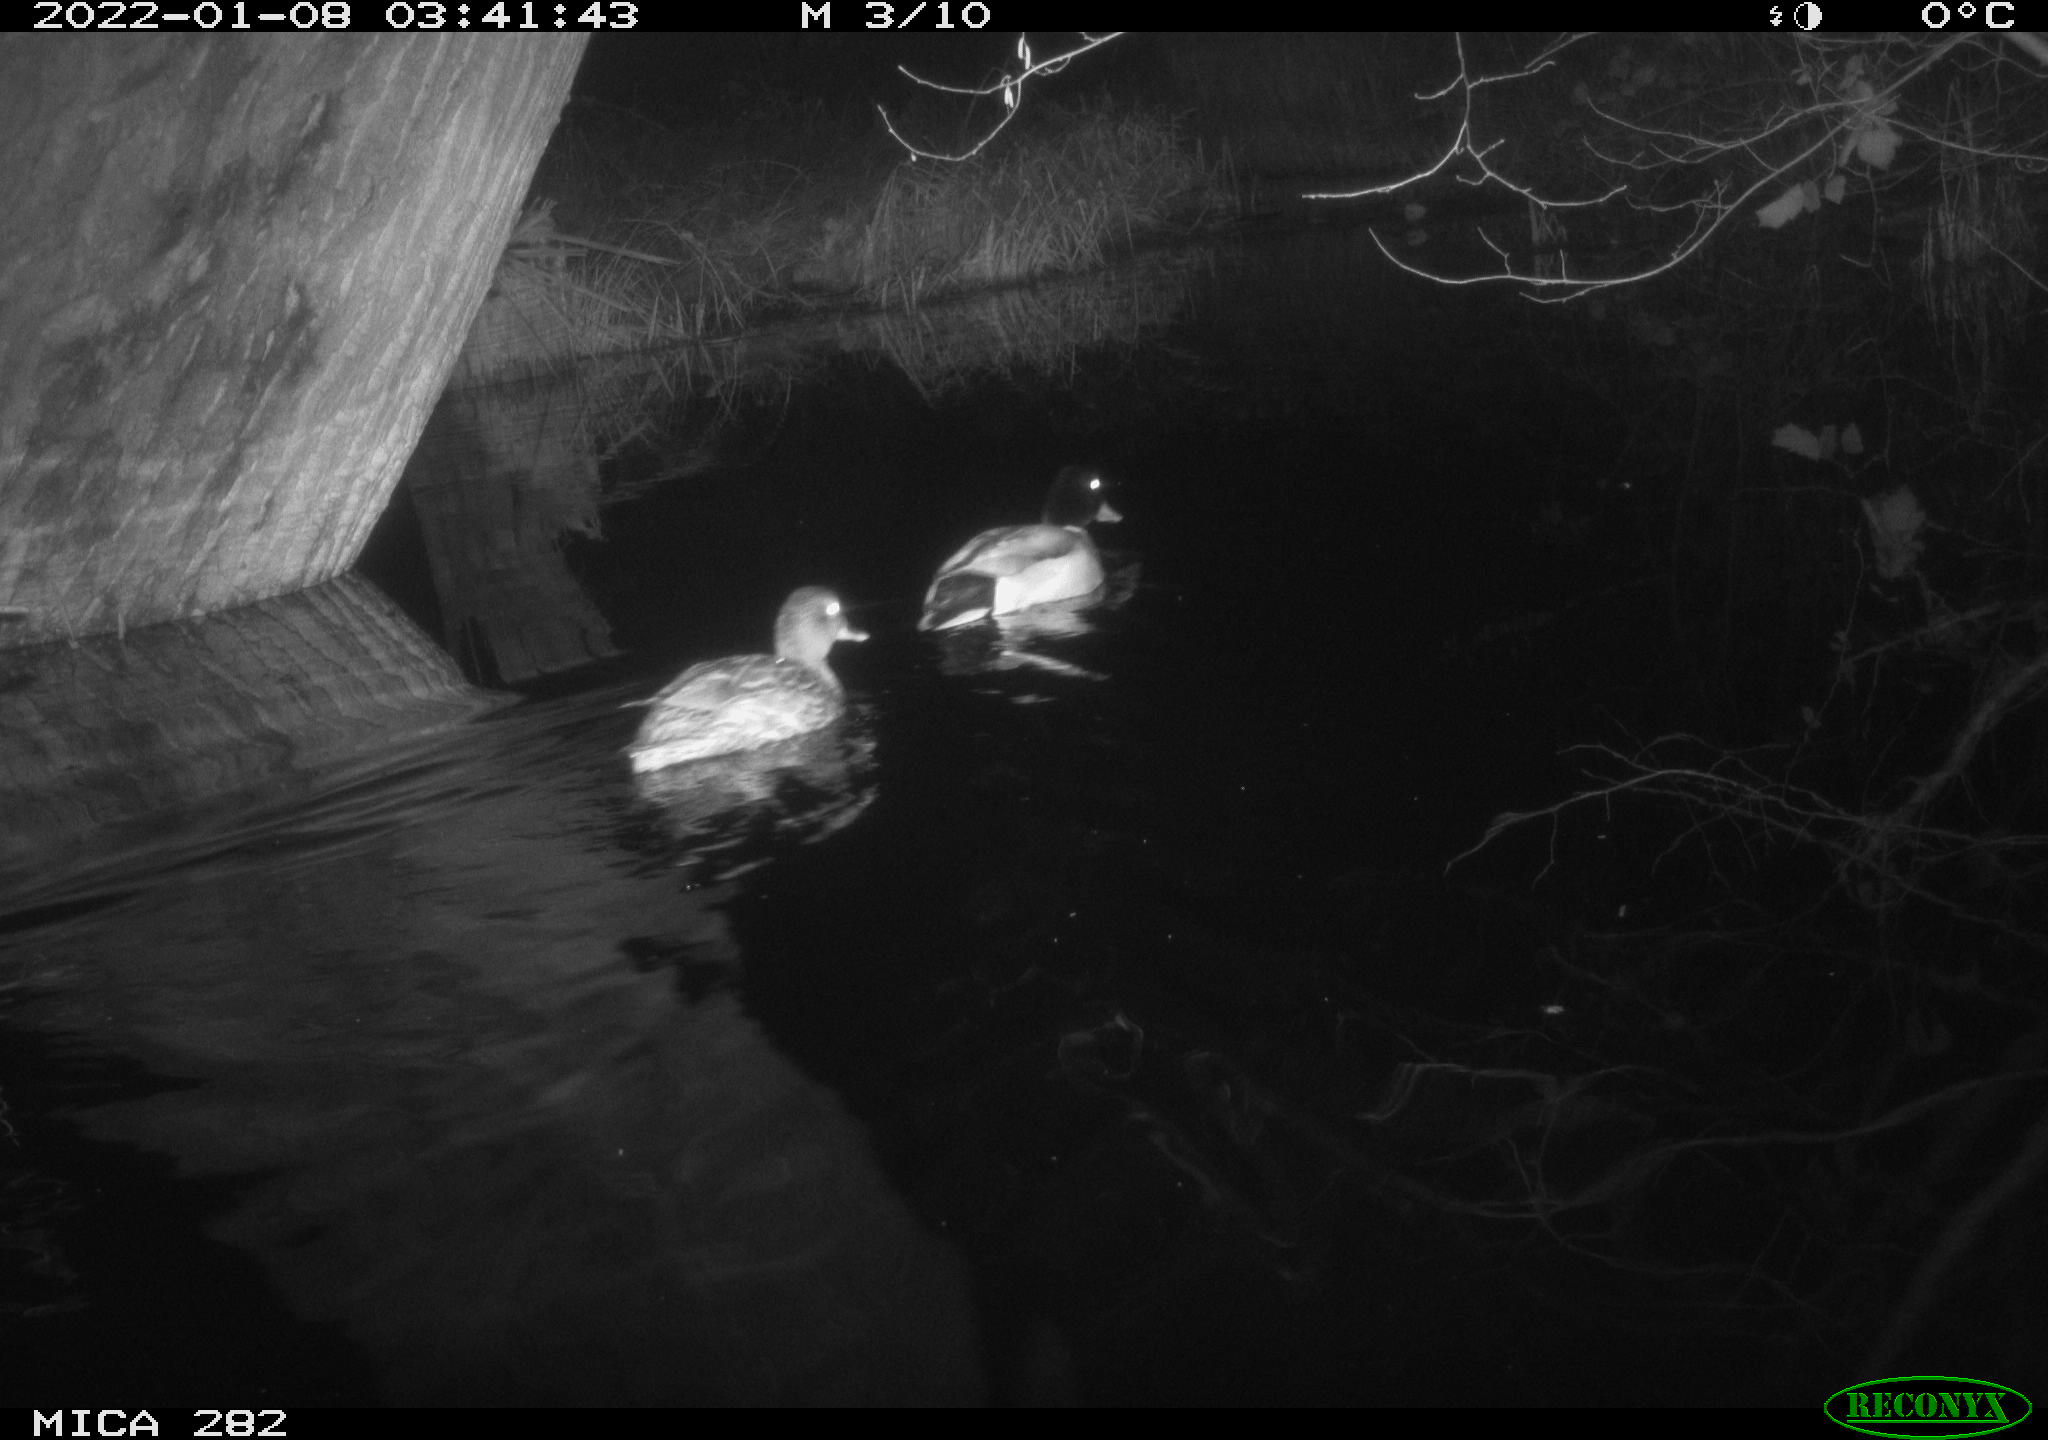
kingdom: Animalia
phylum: Chordata
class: Aves
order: Anseriformes
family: Anatidae
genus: Anas
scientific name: Anas platyrhynchos
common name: Mallard
